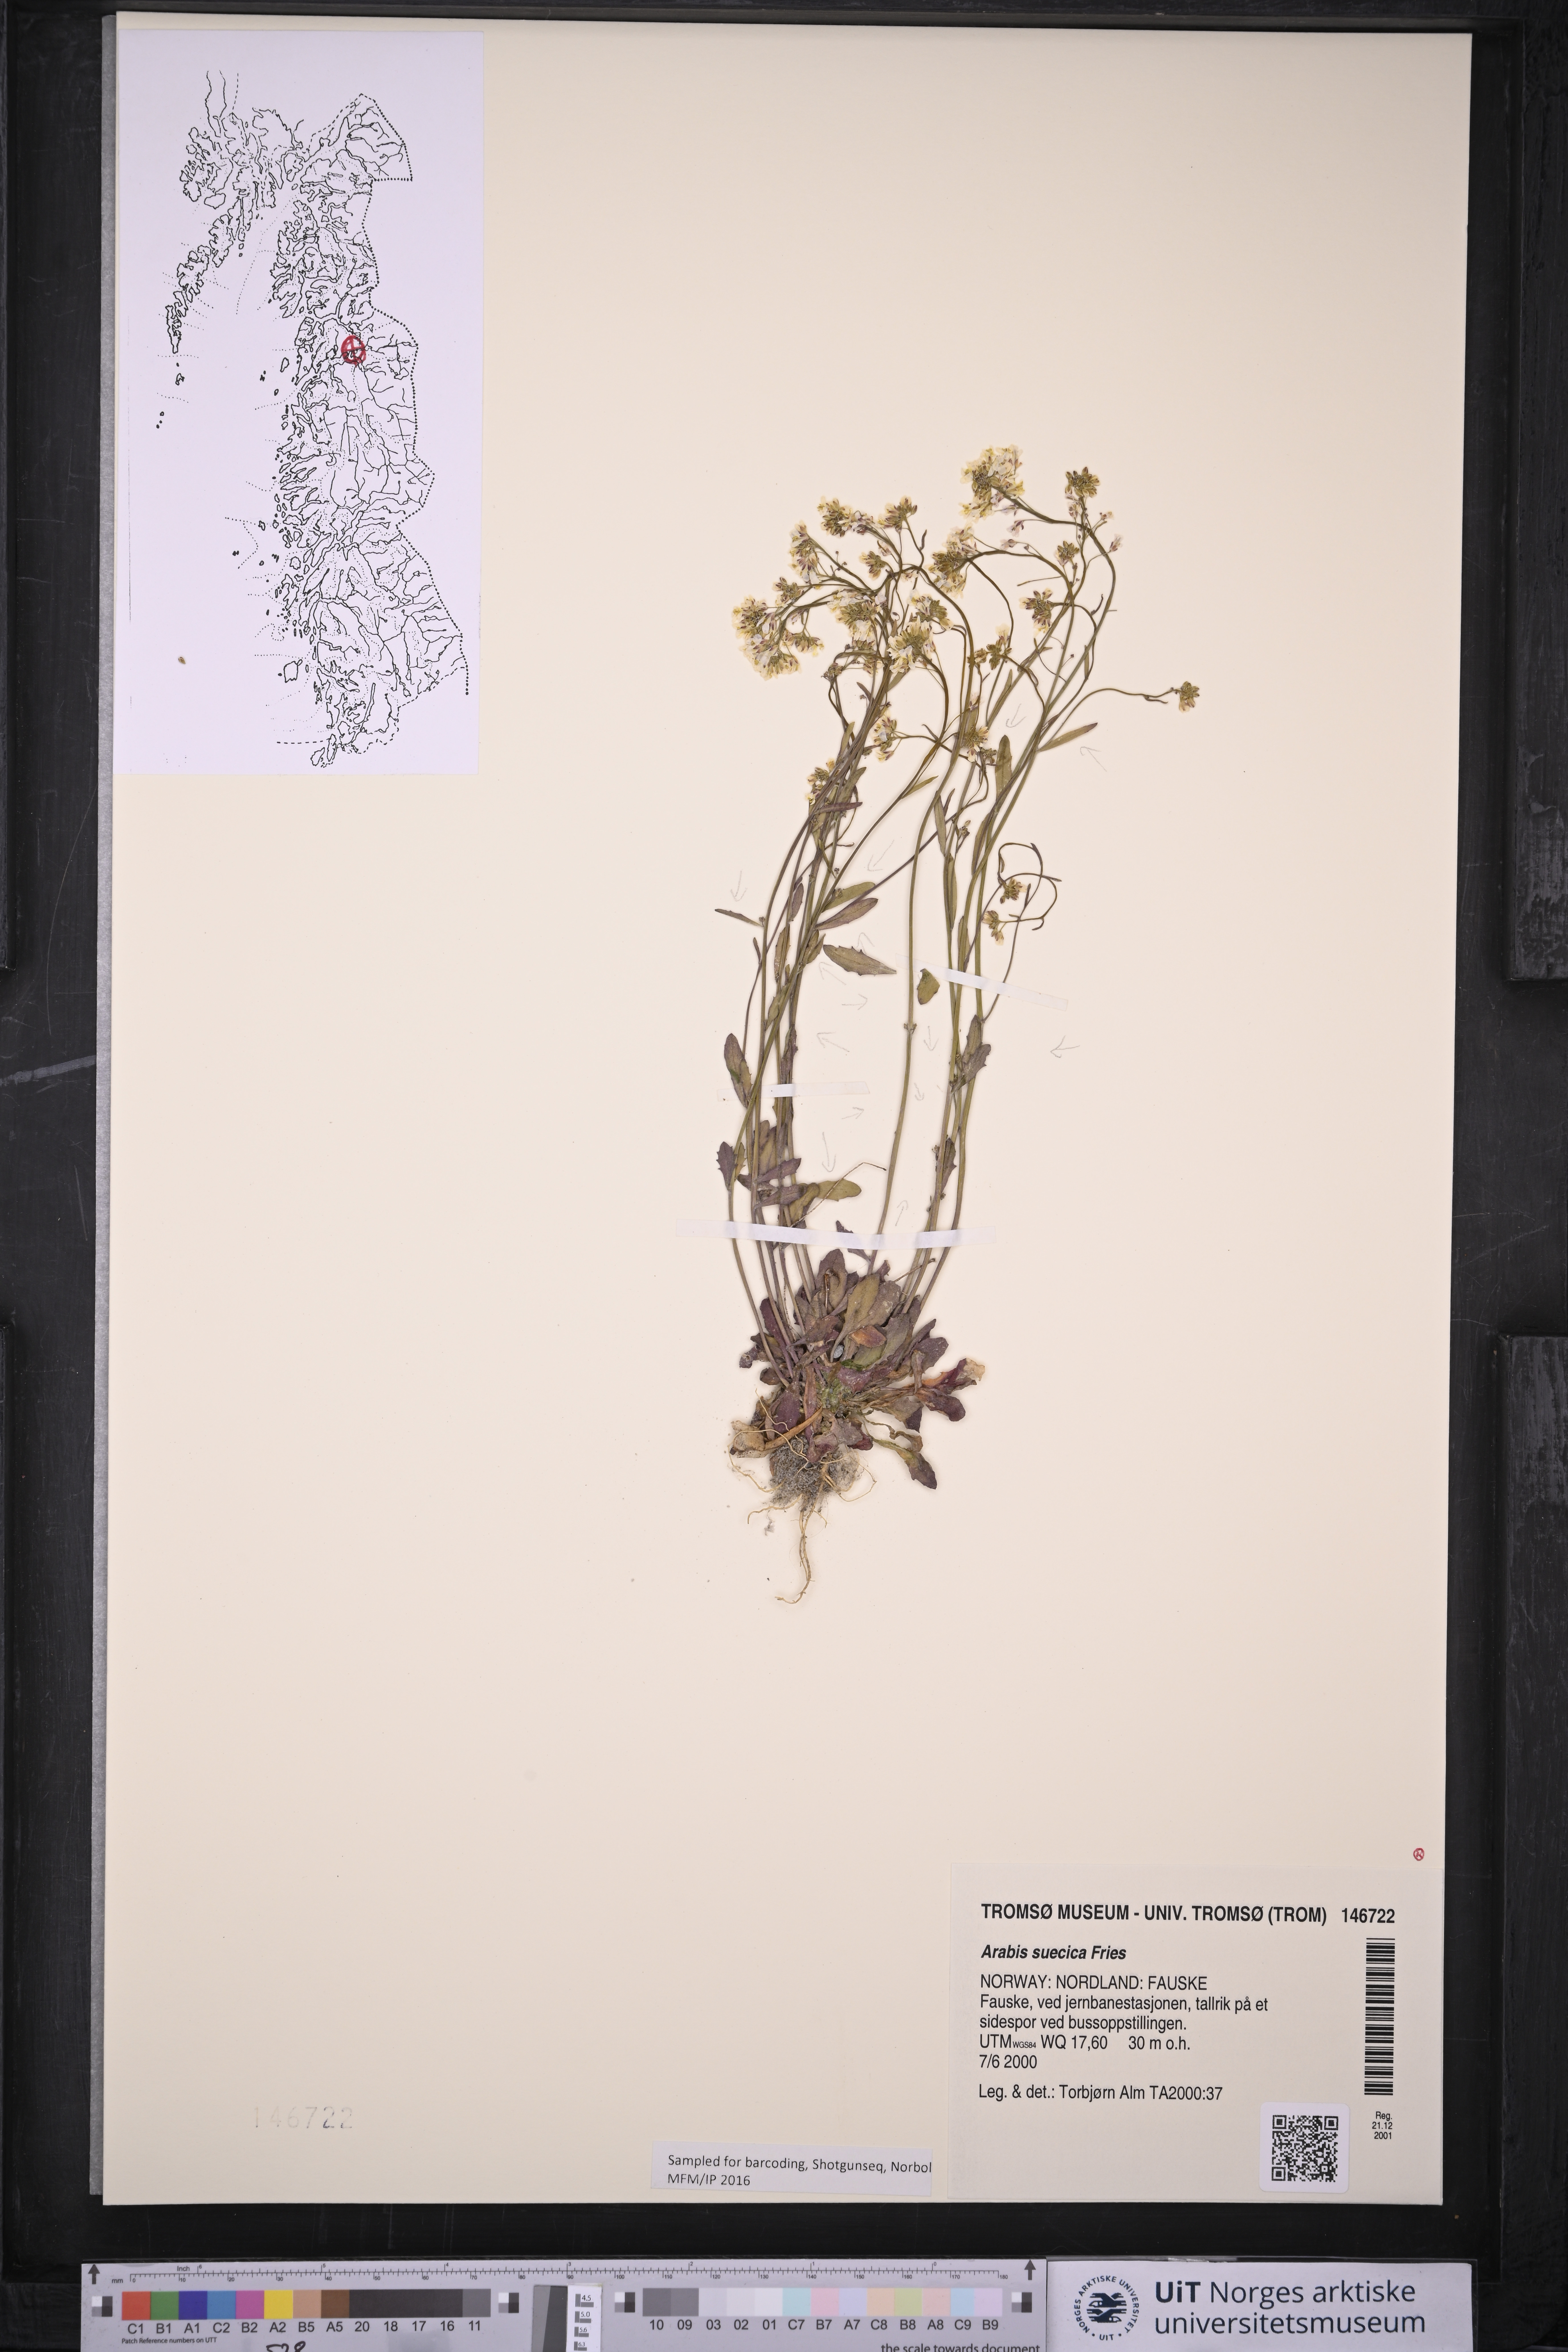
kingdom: Plantae
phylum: Tracheophyta
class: Magnoliopsida
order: Brassicales
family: Brassicaceae
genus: Arabidopsis
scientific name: Arabidopsis suecica
